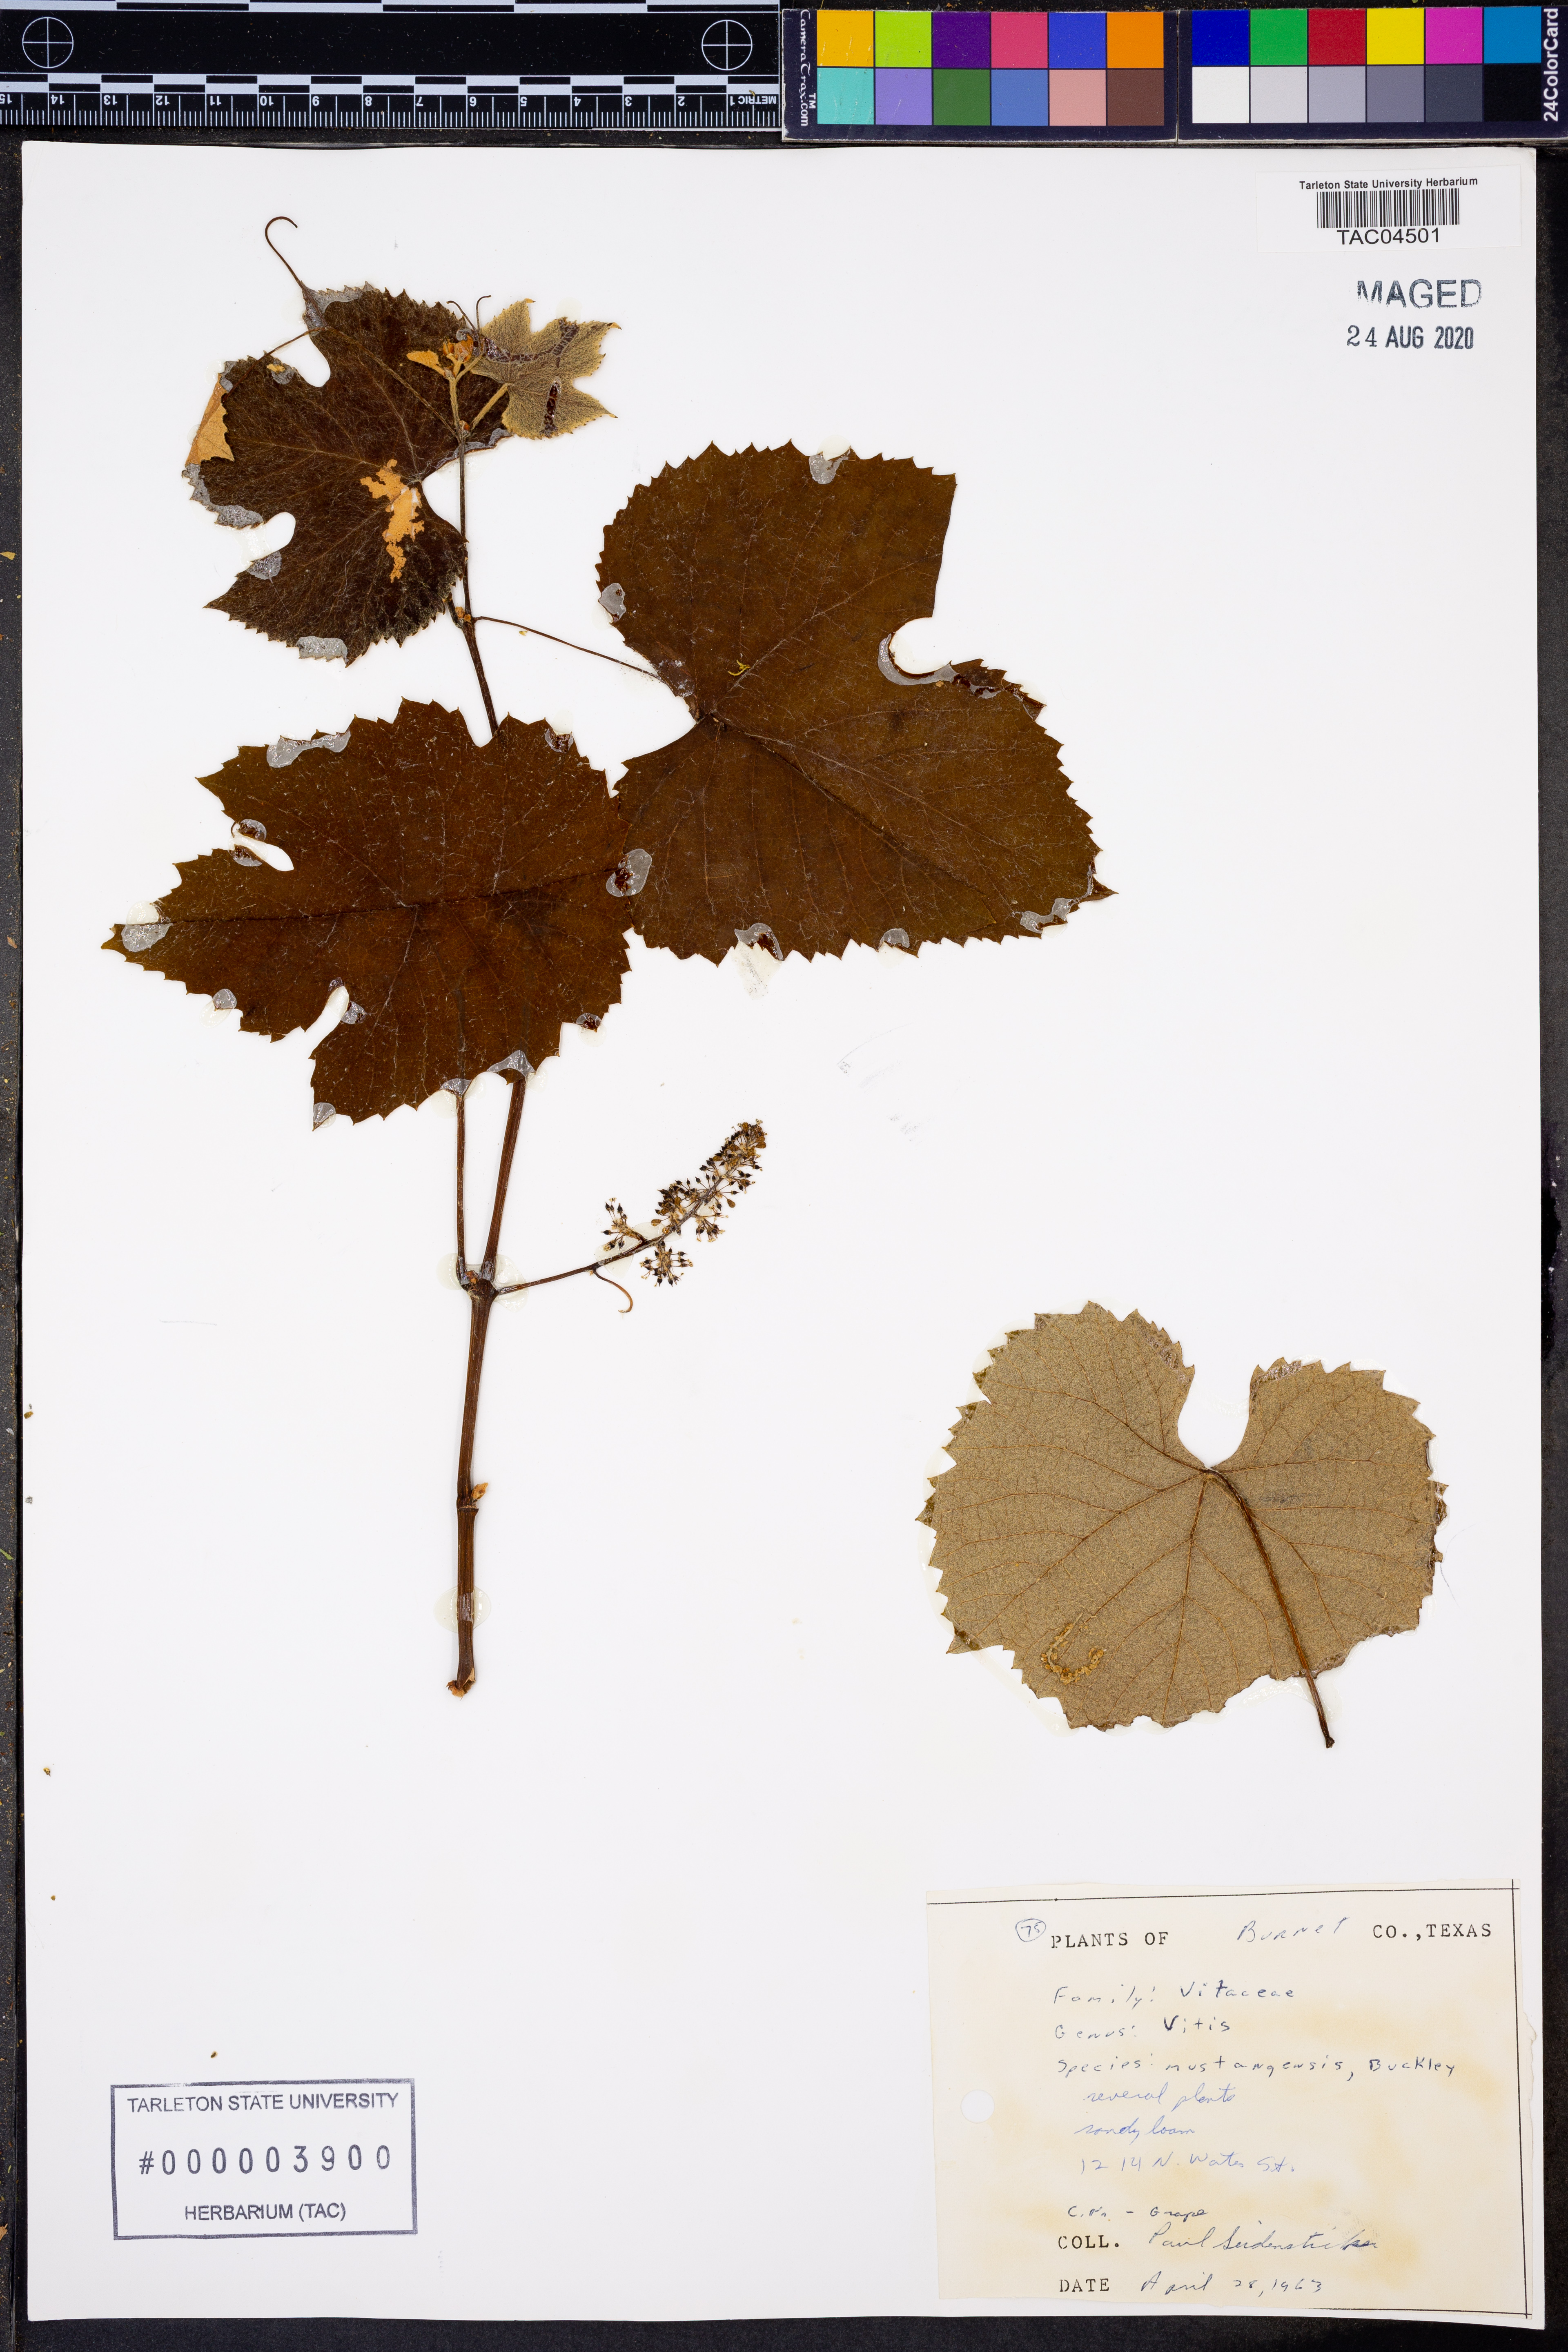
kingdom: Plantae
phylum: Tracheophyta
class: Magnoliopsida
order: Vitales
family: Vitaceae
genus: Vitis
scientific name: Vitis mustangensis
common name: Mustang grape
